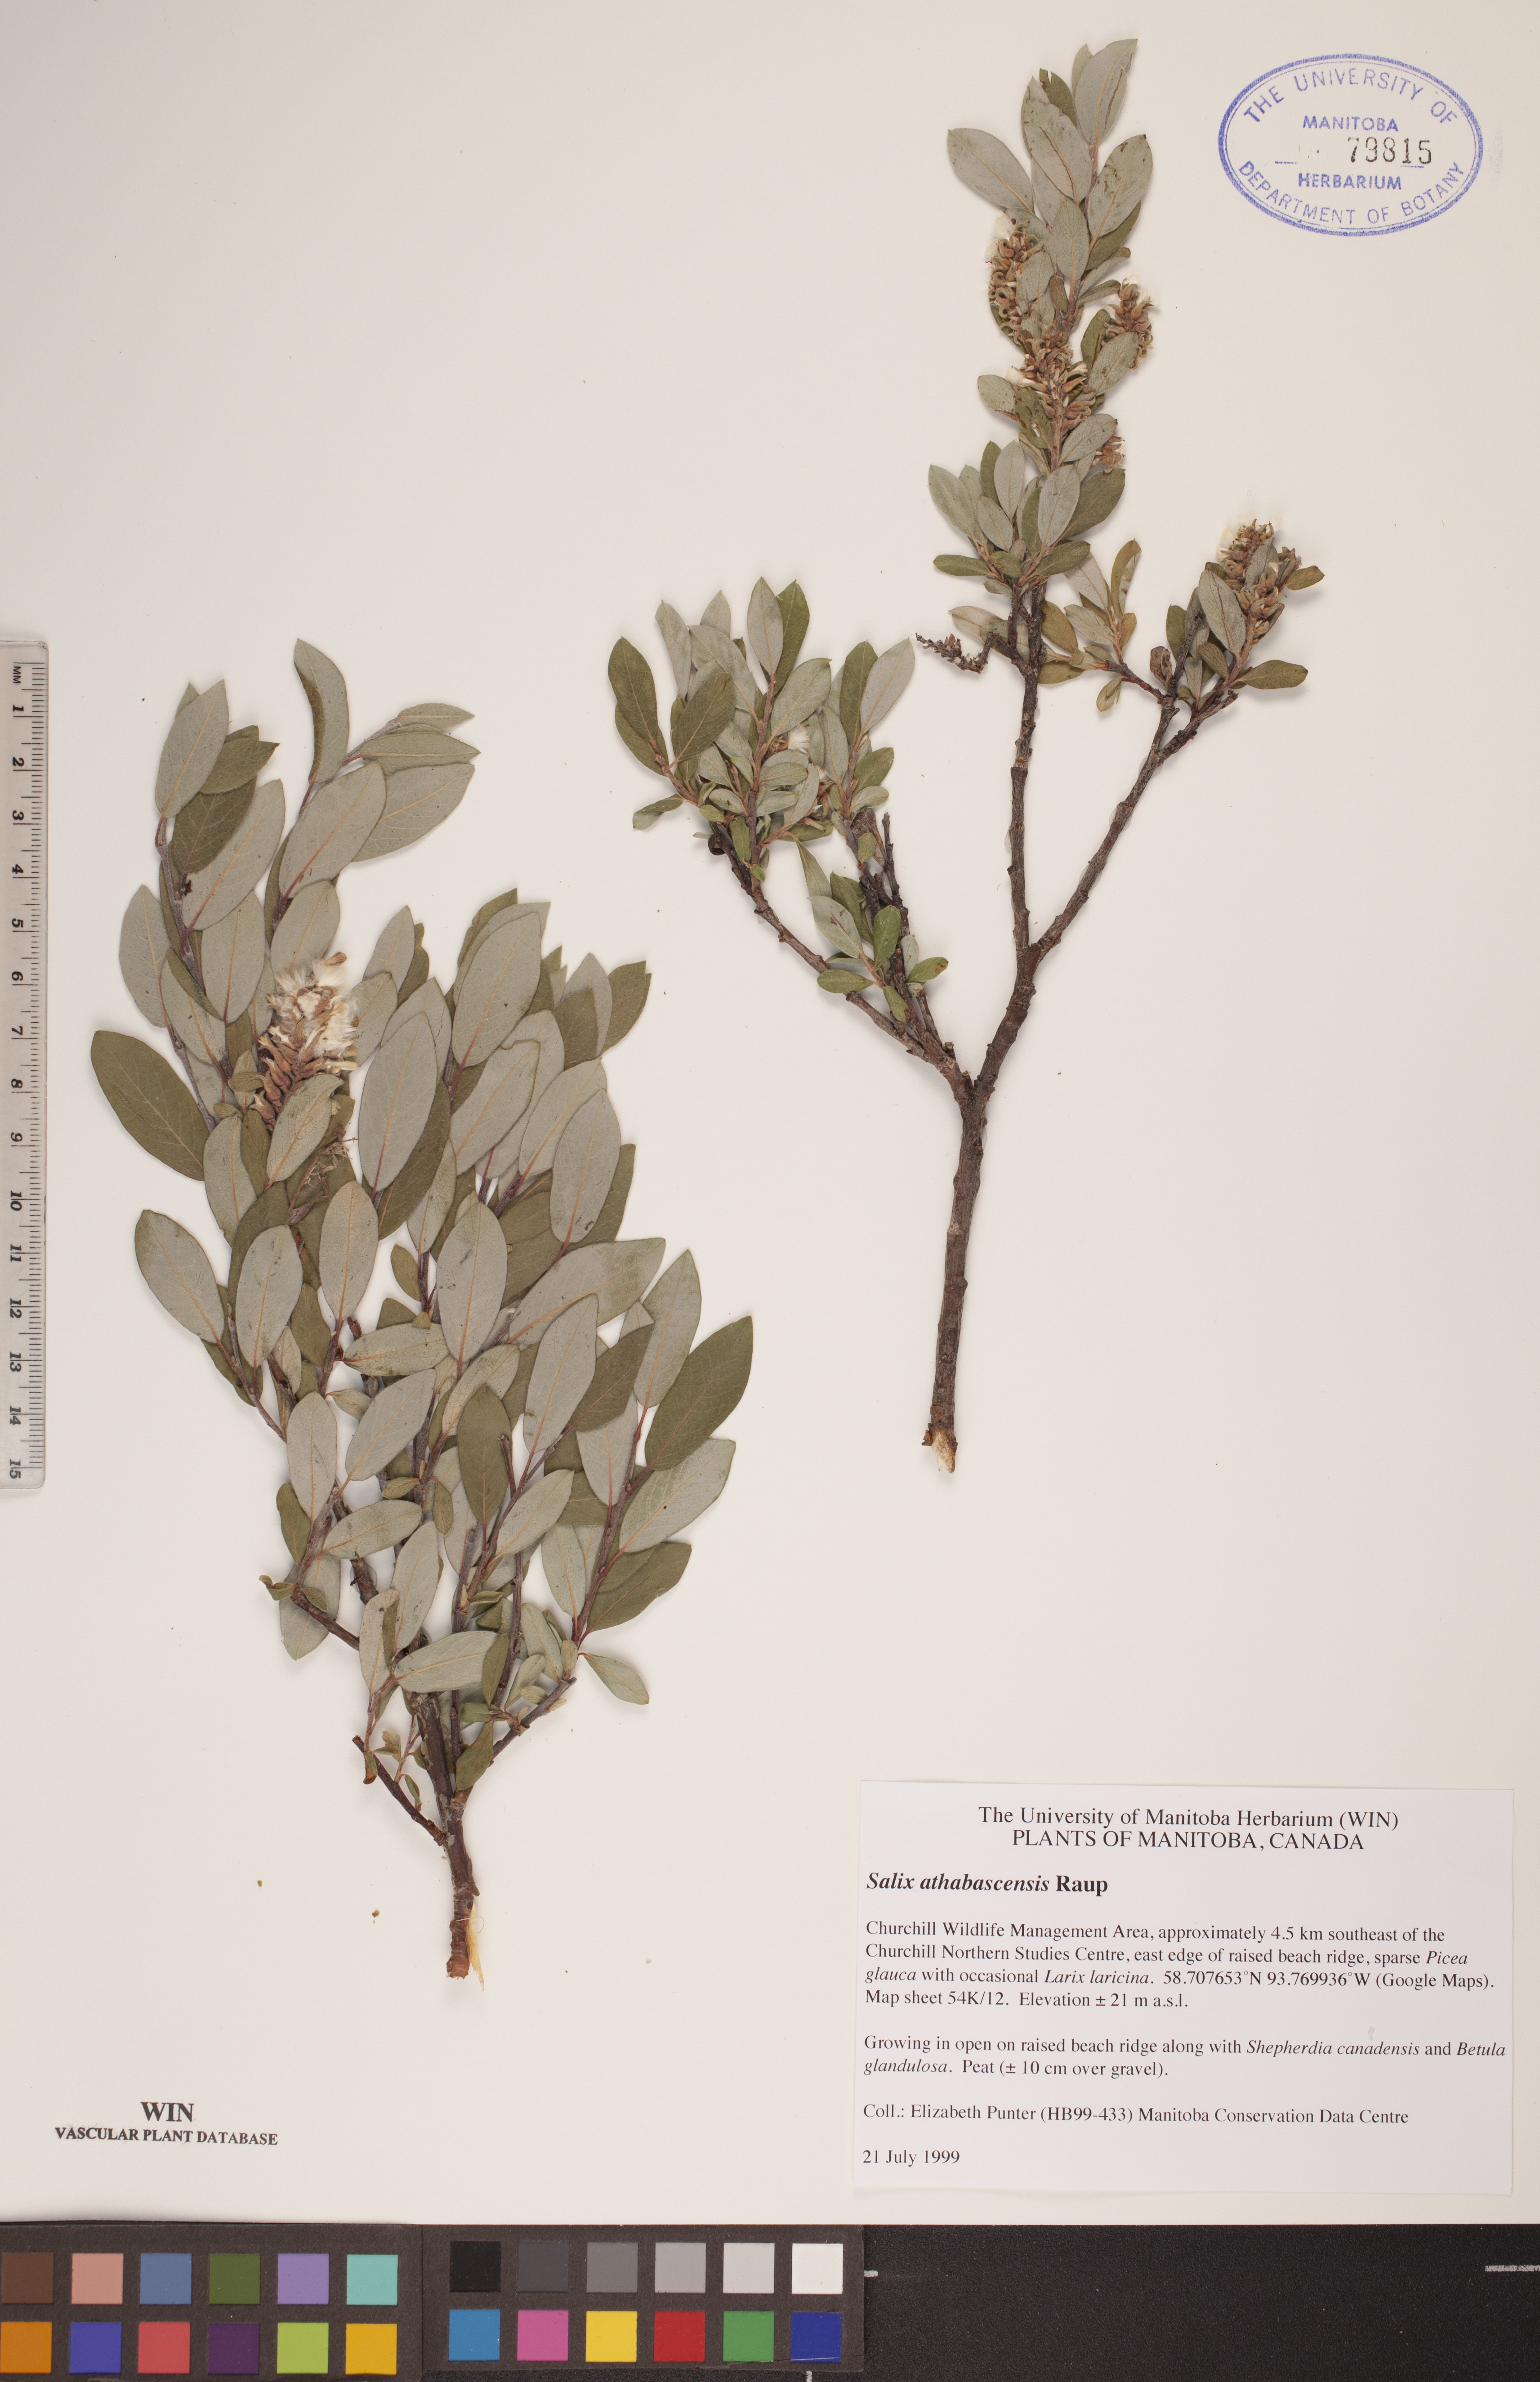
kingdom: Plantae
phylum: Tracheophyta
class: Magnoliopsida
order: Malpighiales
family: Salicaceae
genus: Salix
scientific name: Salix athabascensis
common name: Athabasca willow
